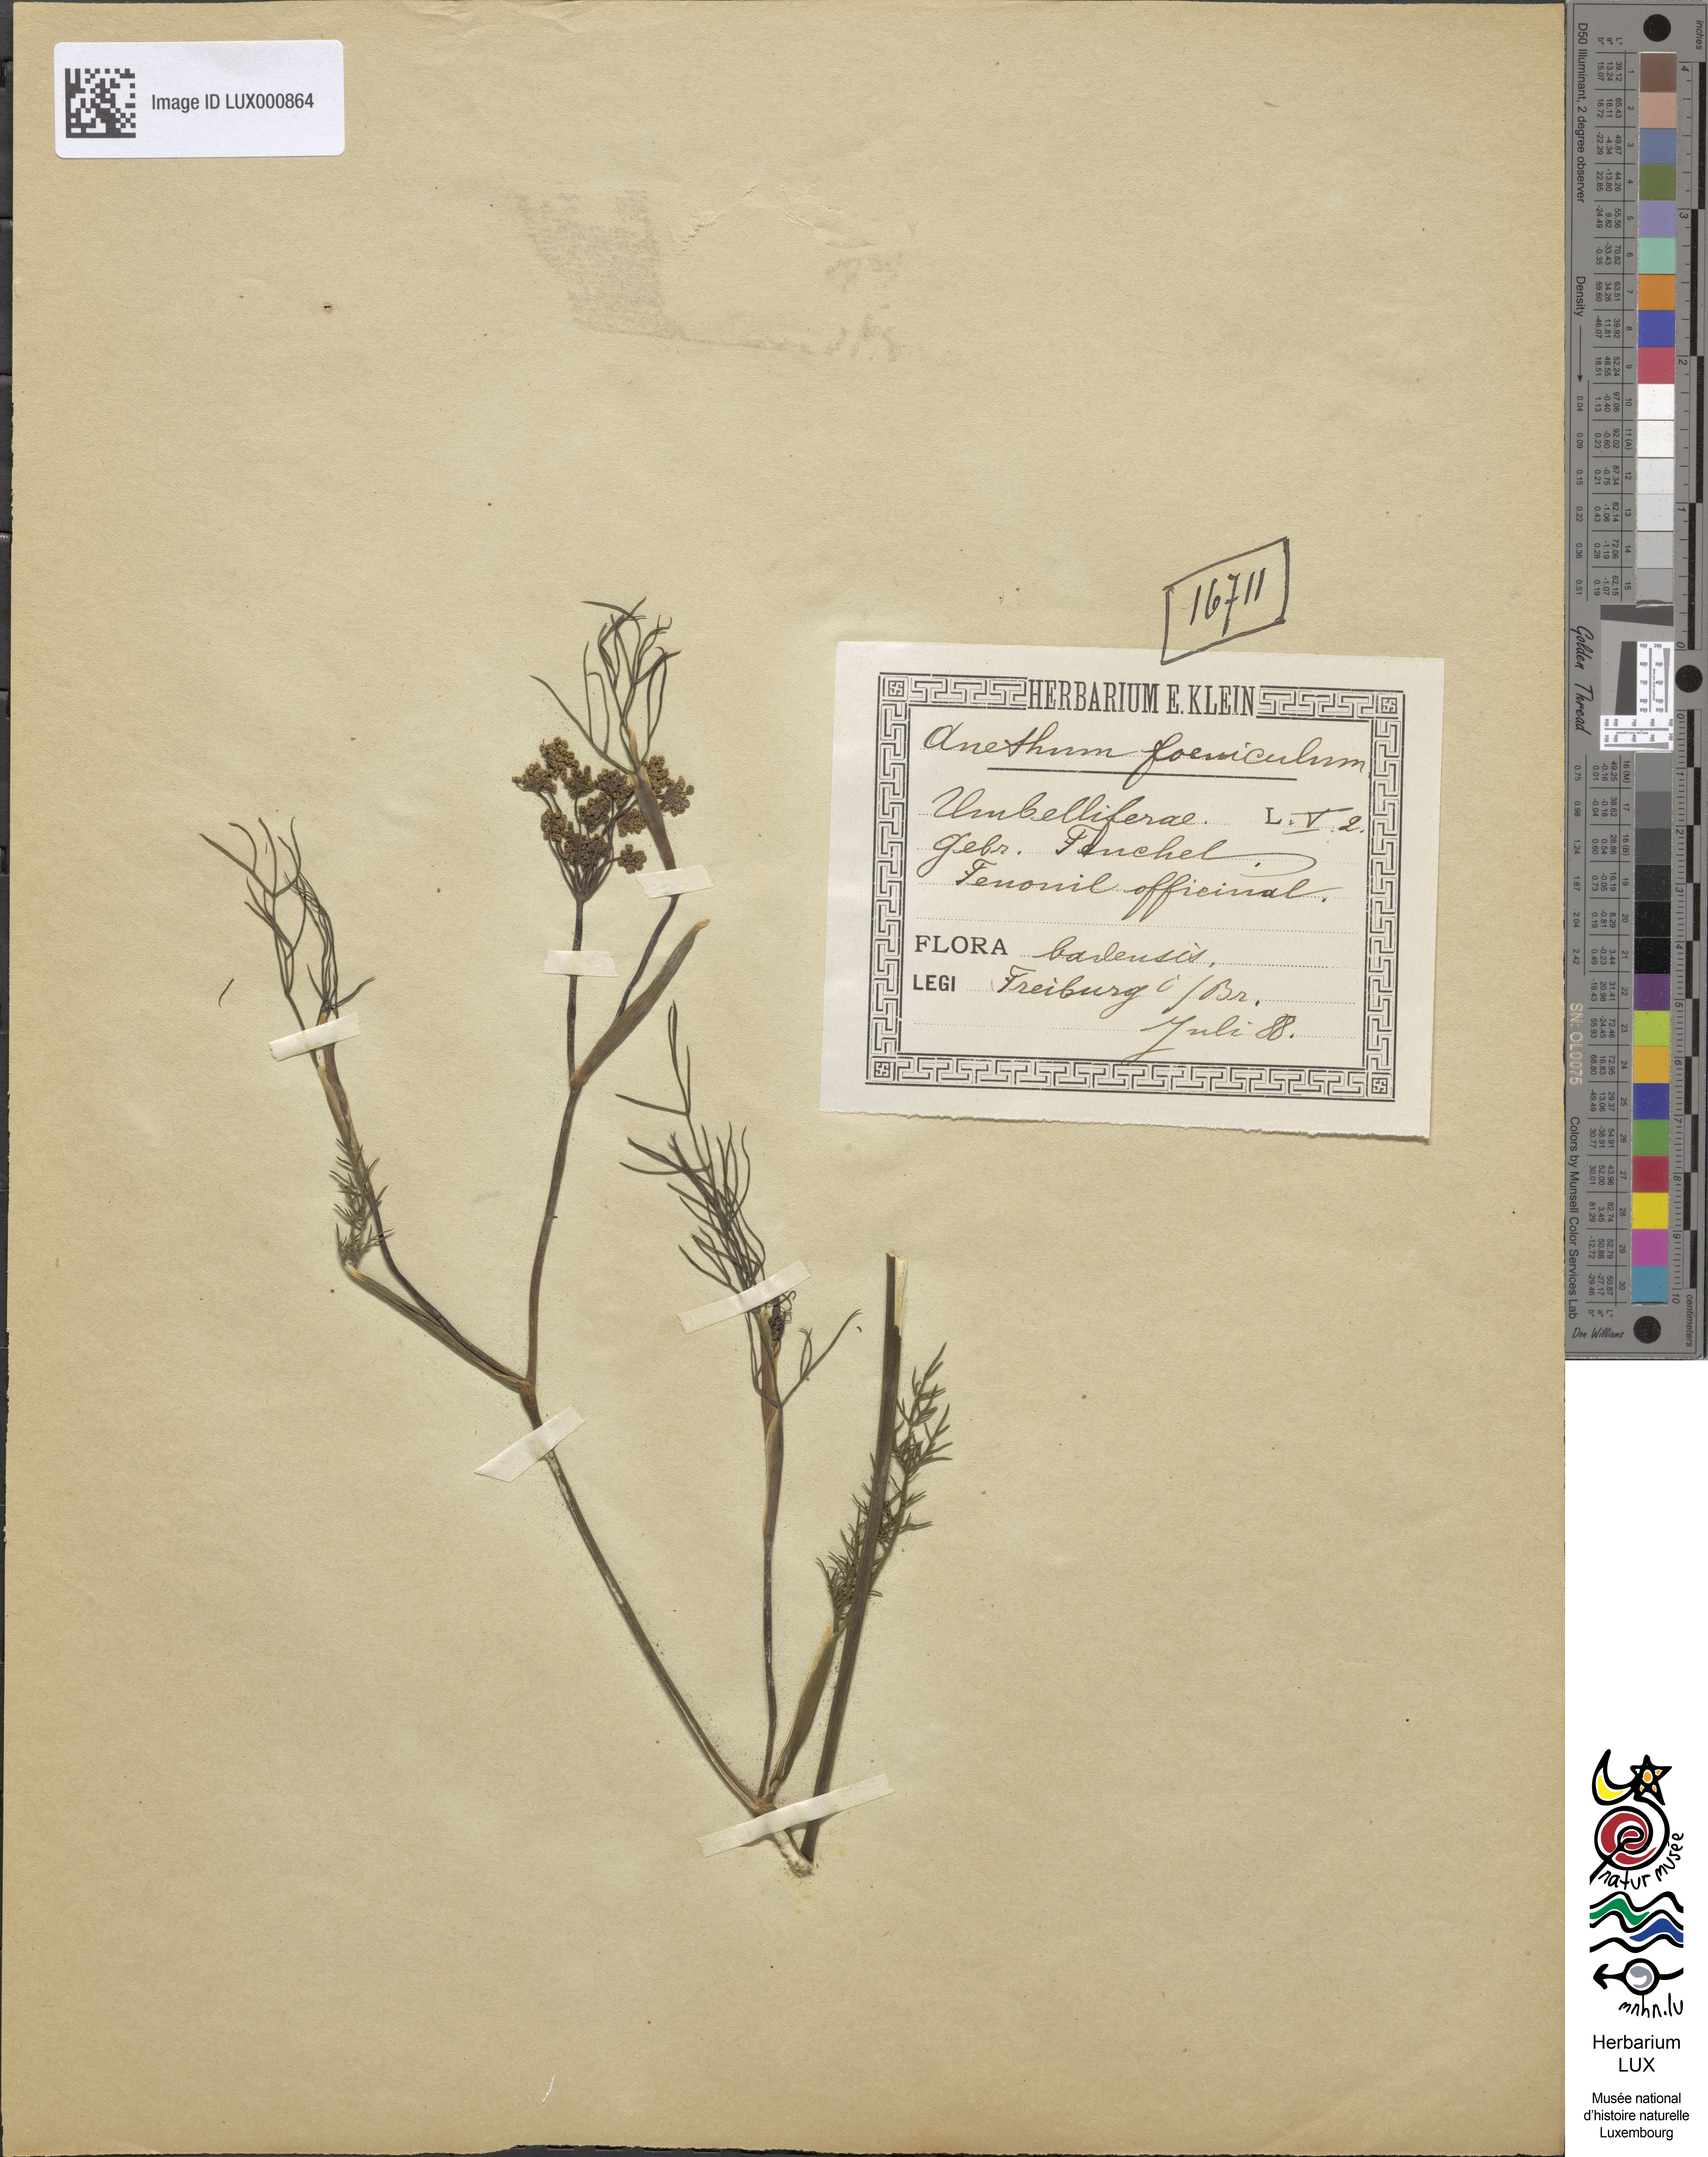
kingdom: Plantae
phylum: Tracheophyta
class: Magnoliopsida
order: Apiales
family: Apiaceae
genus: Foeniculum
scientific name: Foeniculum vulgare
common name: Fennel
